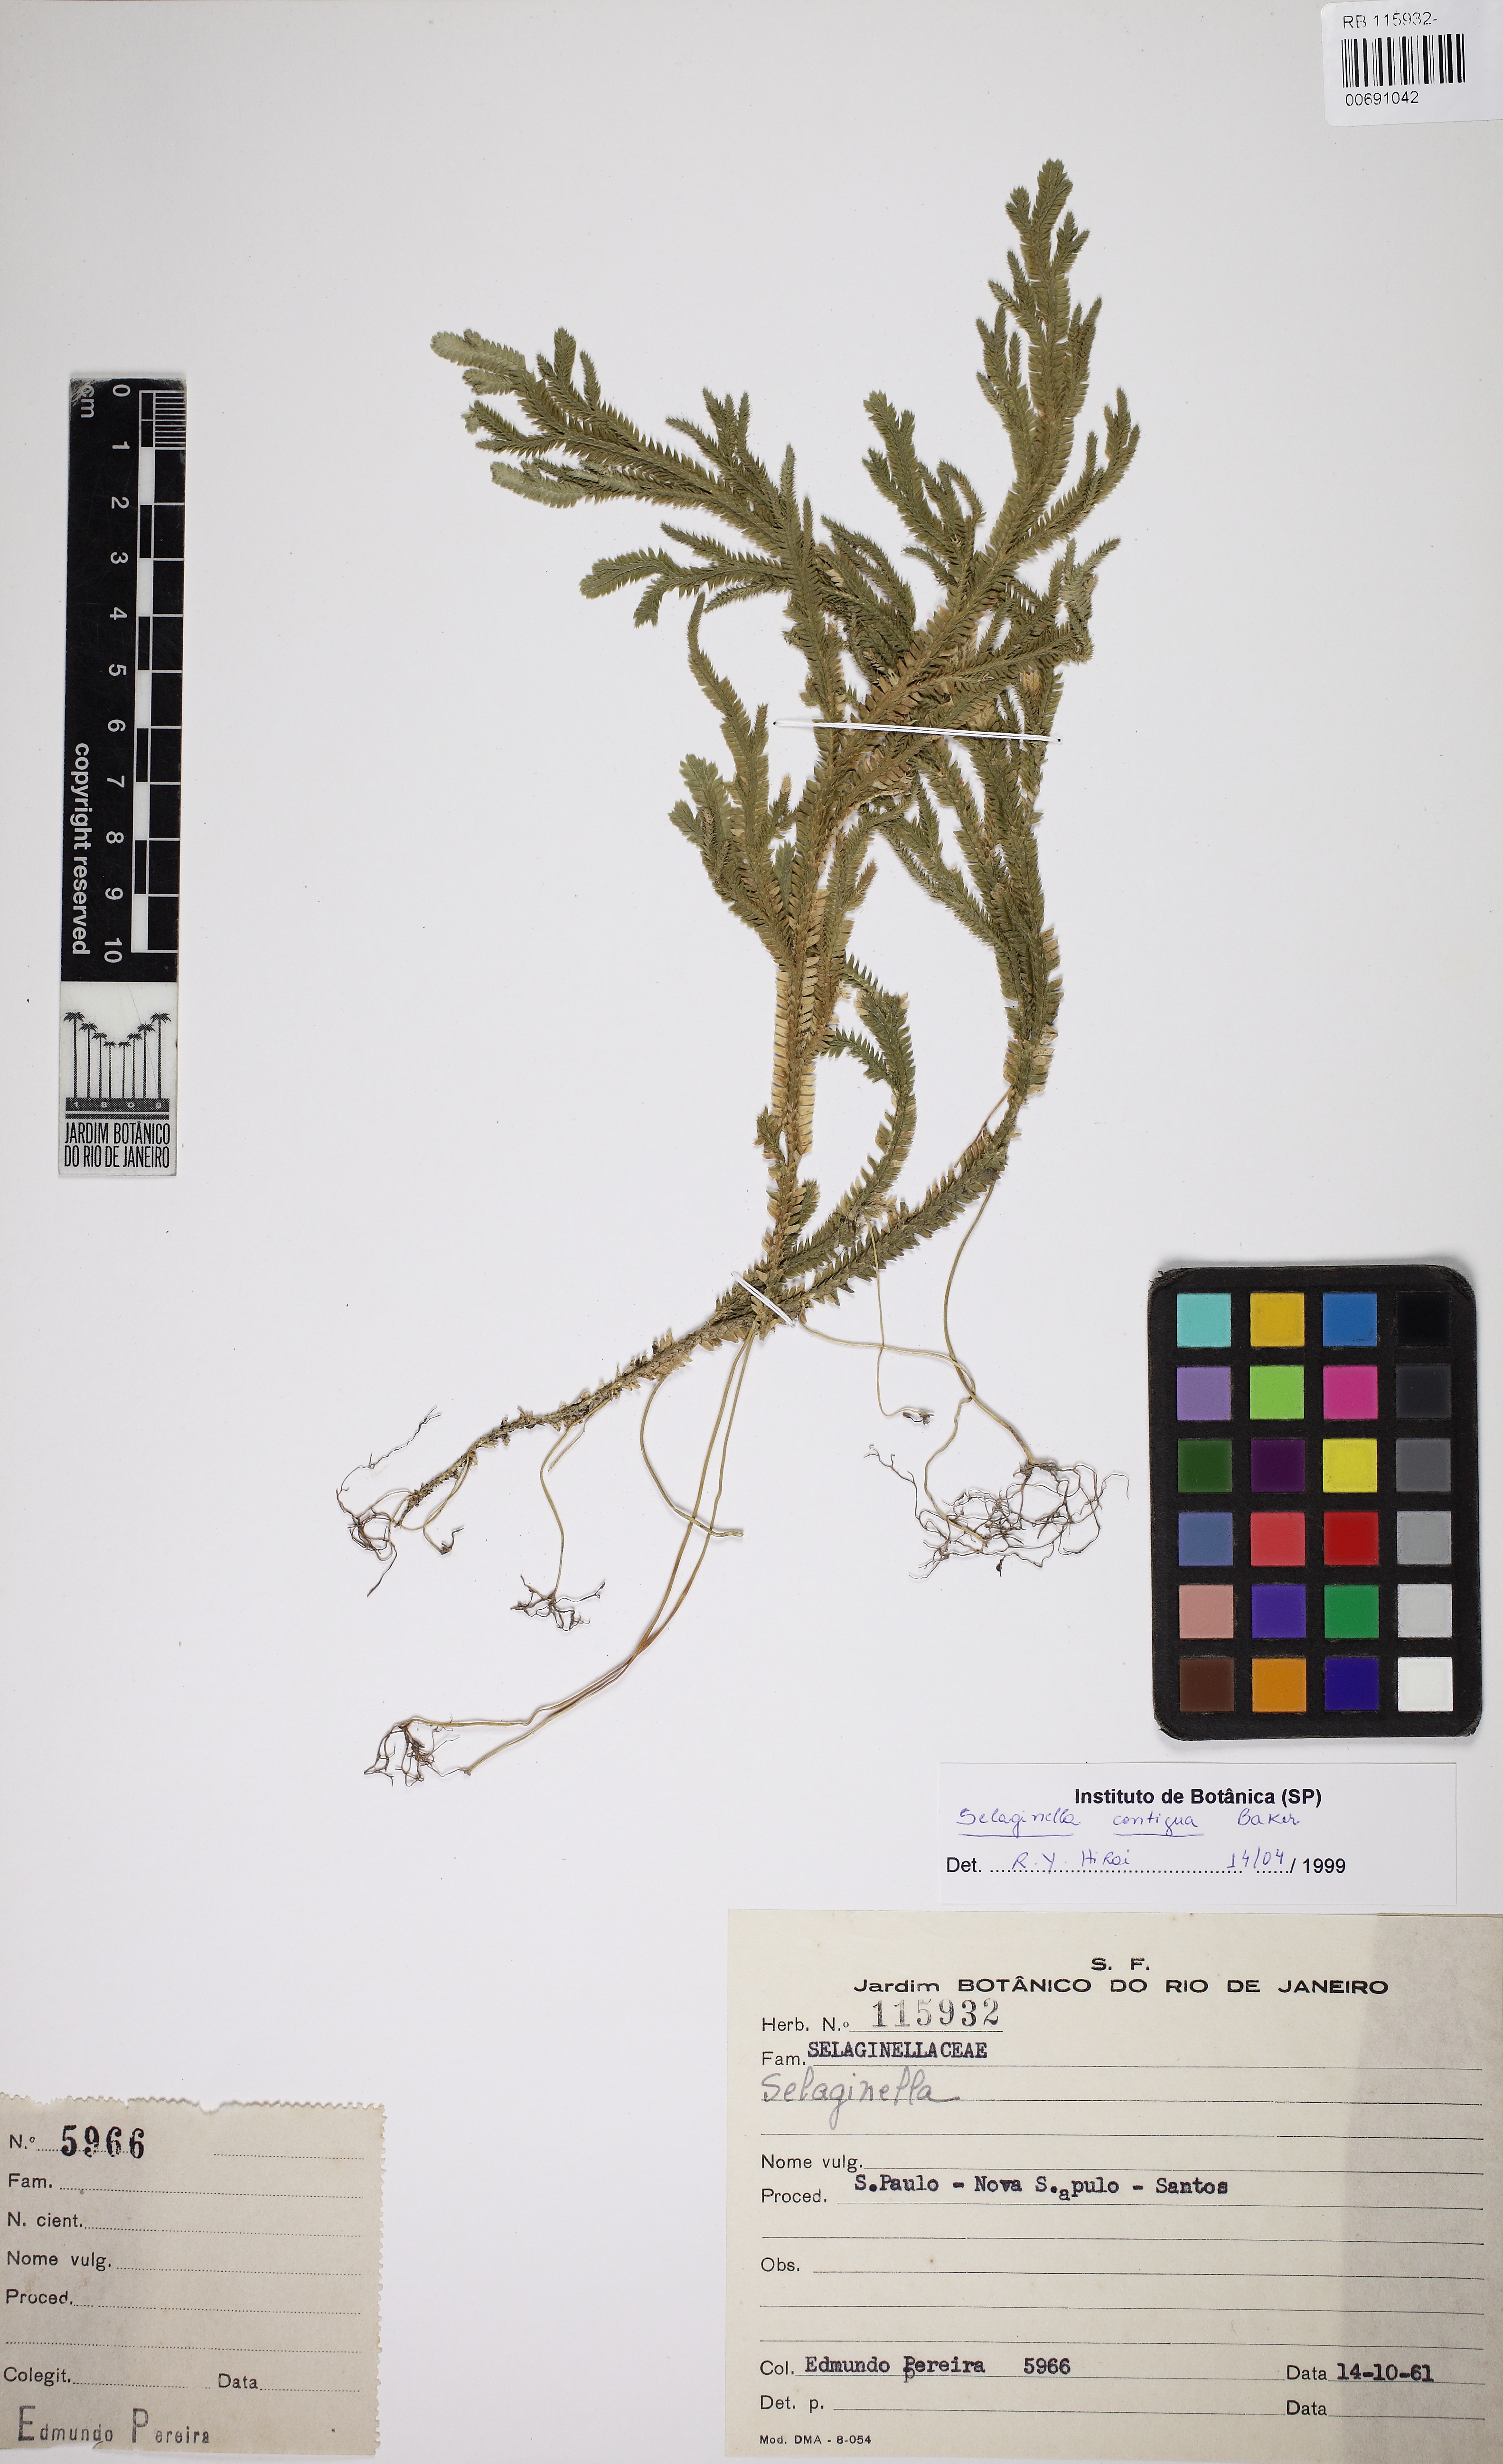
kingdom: Plantae
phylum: Tracheophyta
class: Lycopodiopsida
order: Selaginellales
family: Selaginellaceae
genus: Selaginella
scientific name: Selaginella contigua
